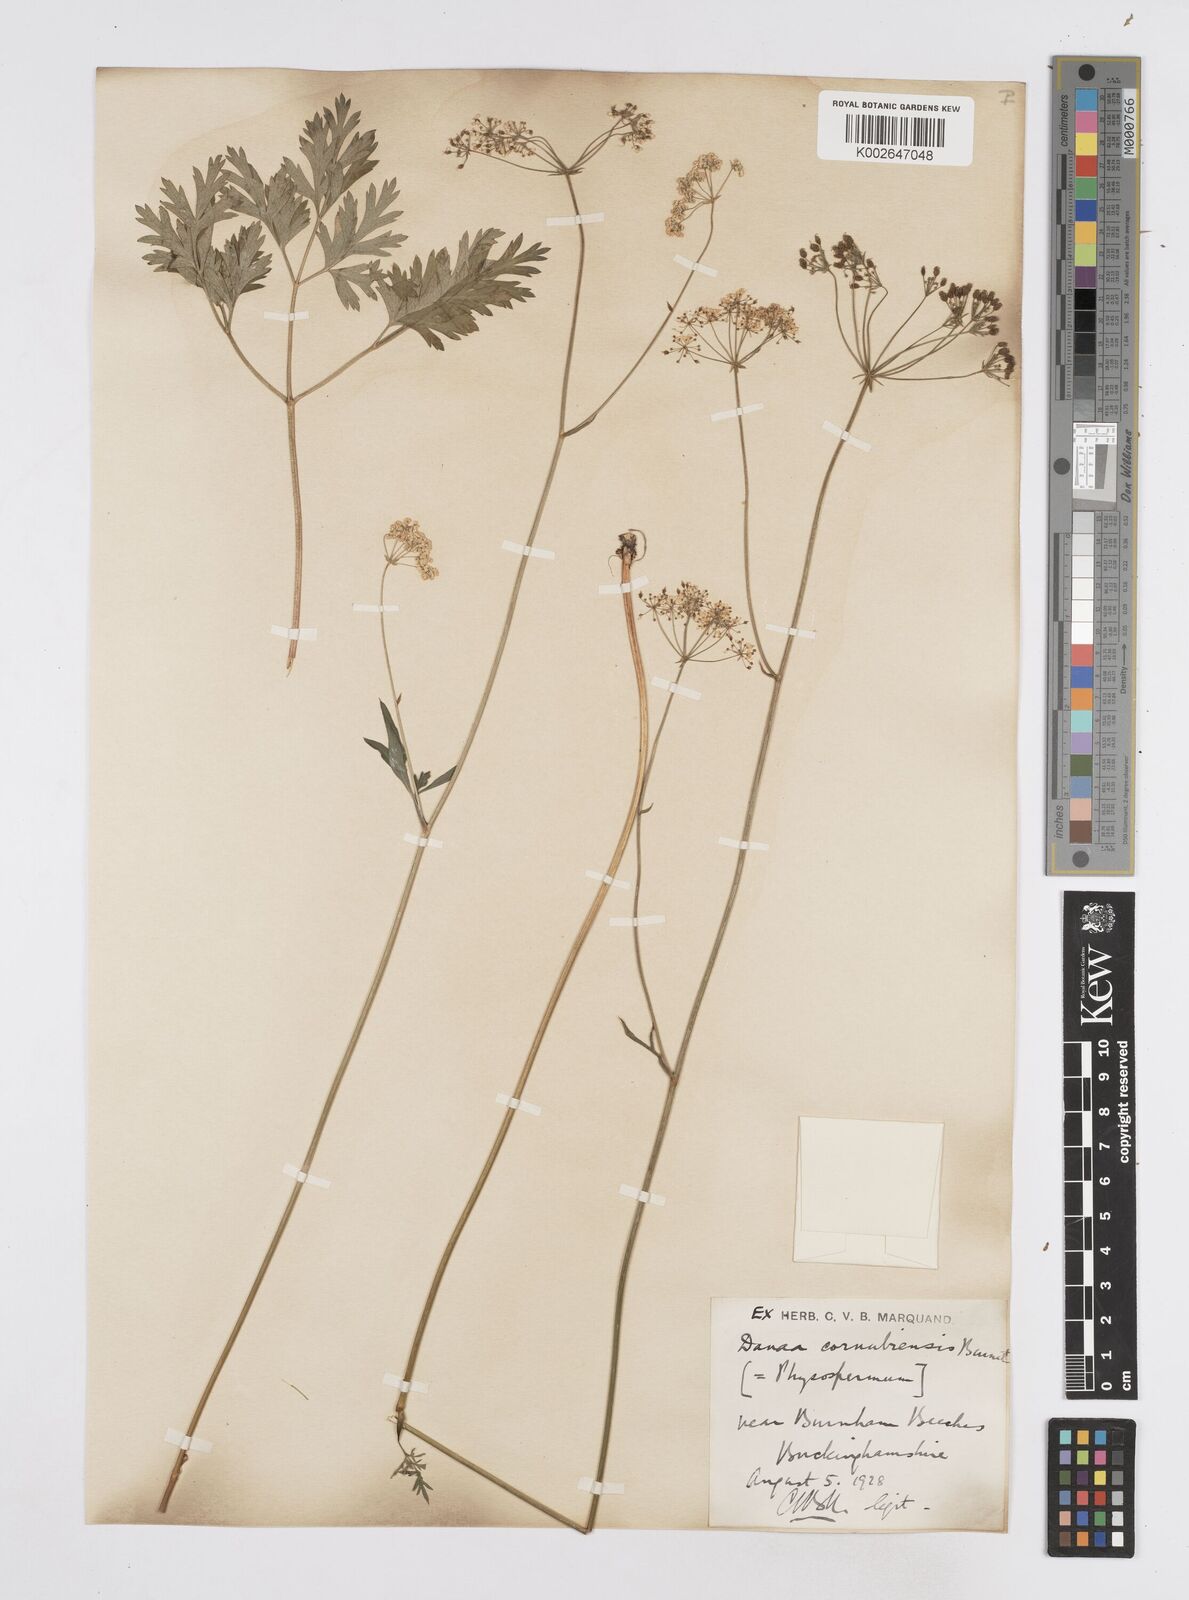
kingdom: Plantae
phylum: Tracheophyta
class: Magnoliopsida
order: Apiales
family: Apiaceae
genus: Physospermum
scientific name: Physospermum cornubiense
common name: Bladderseed
